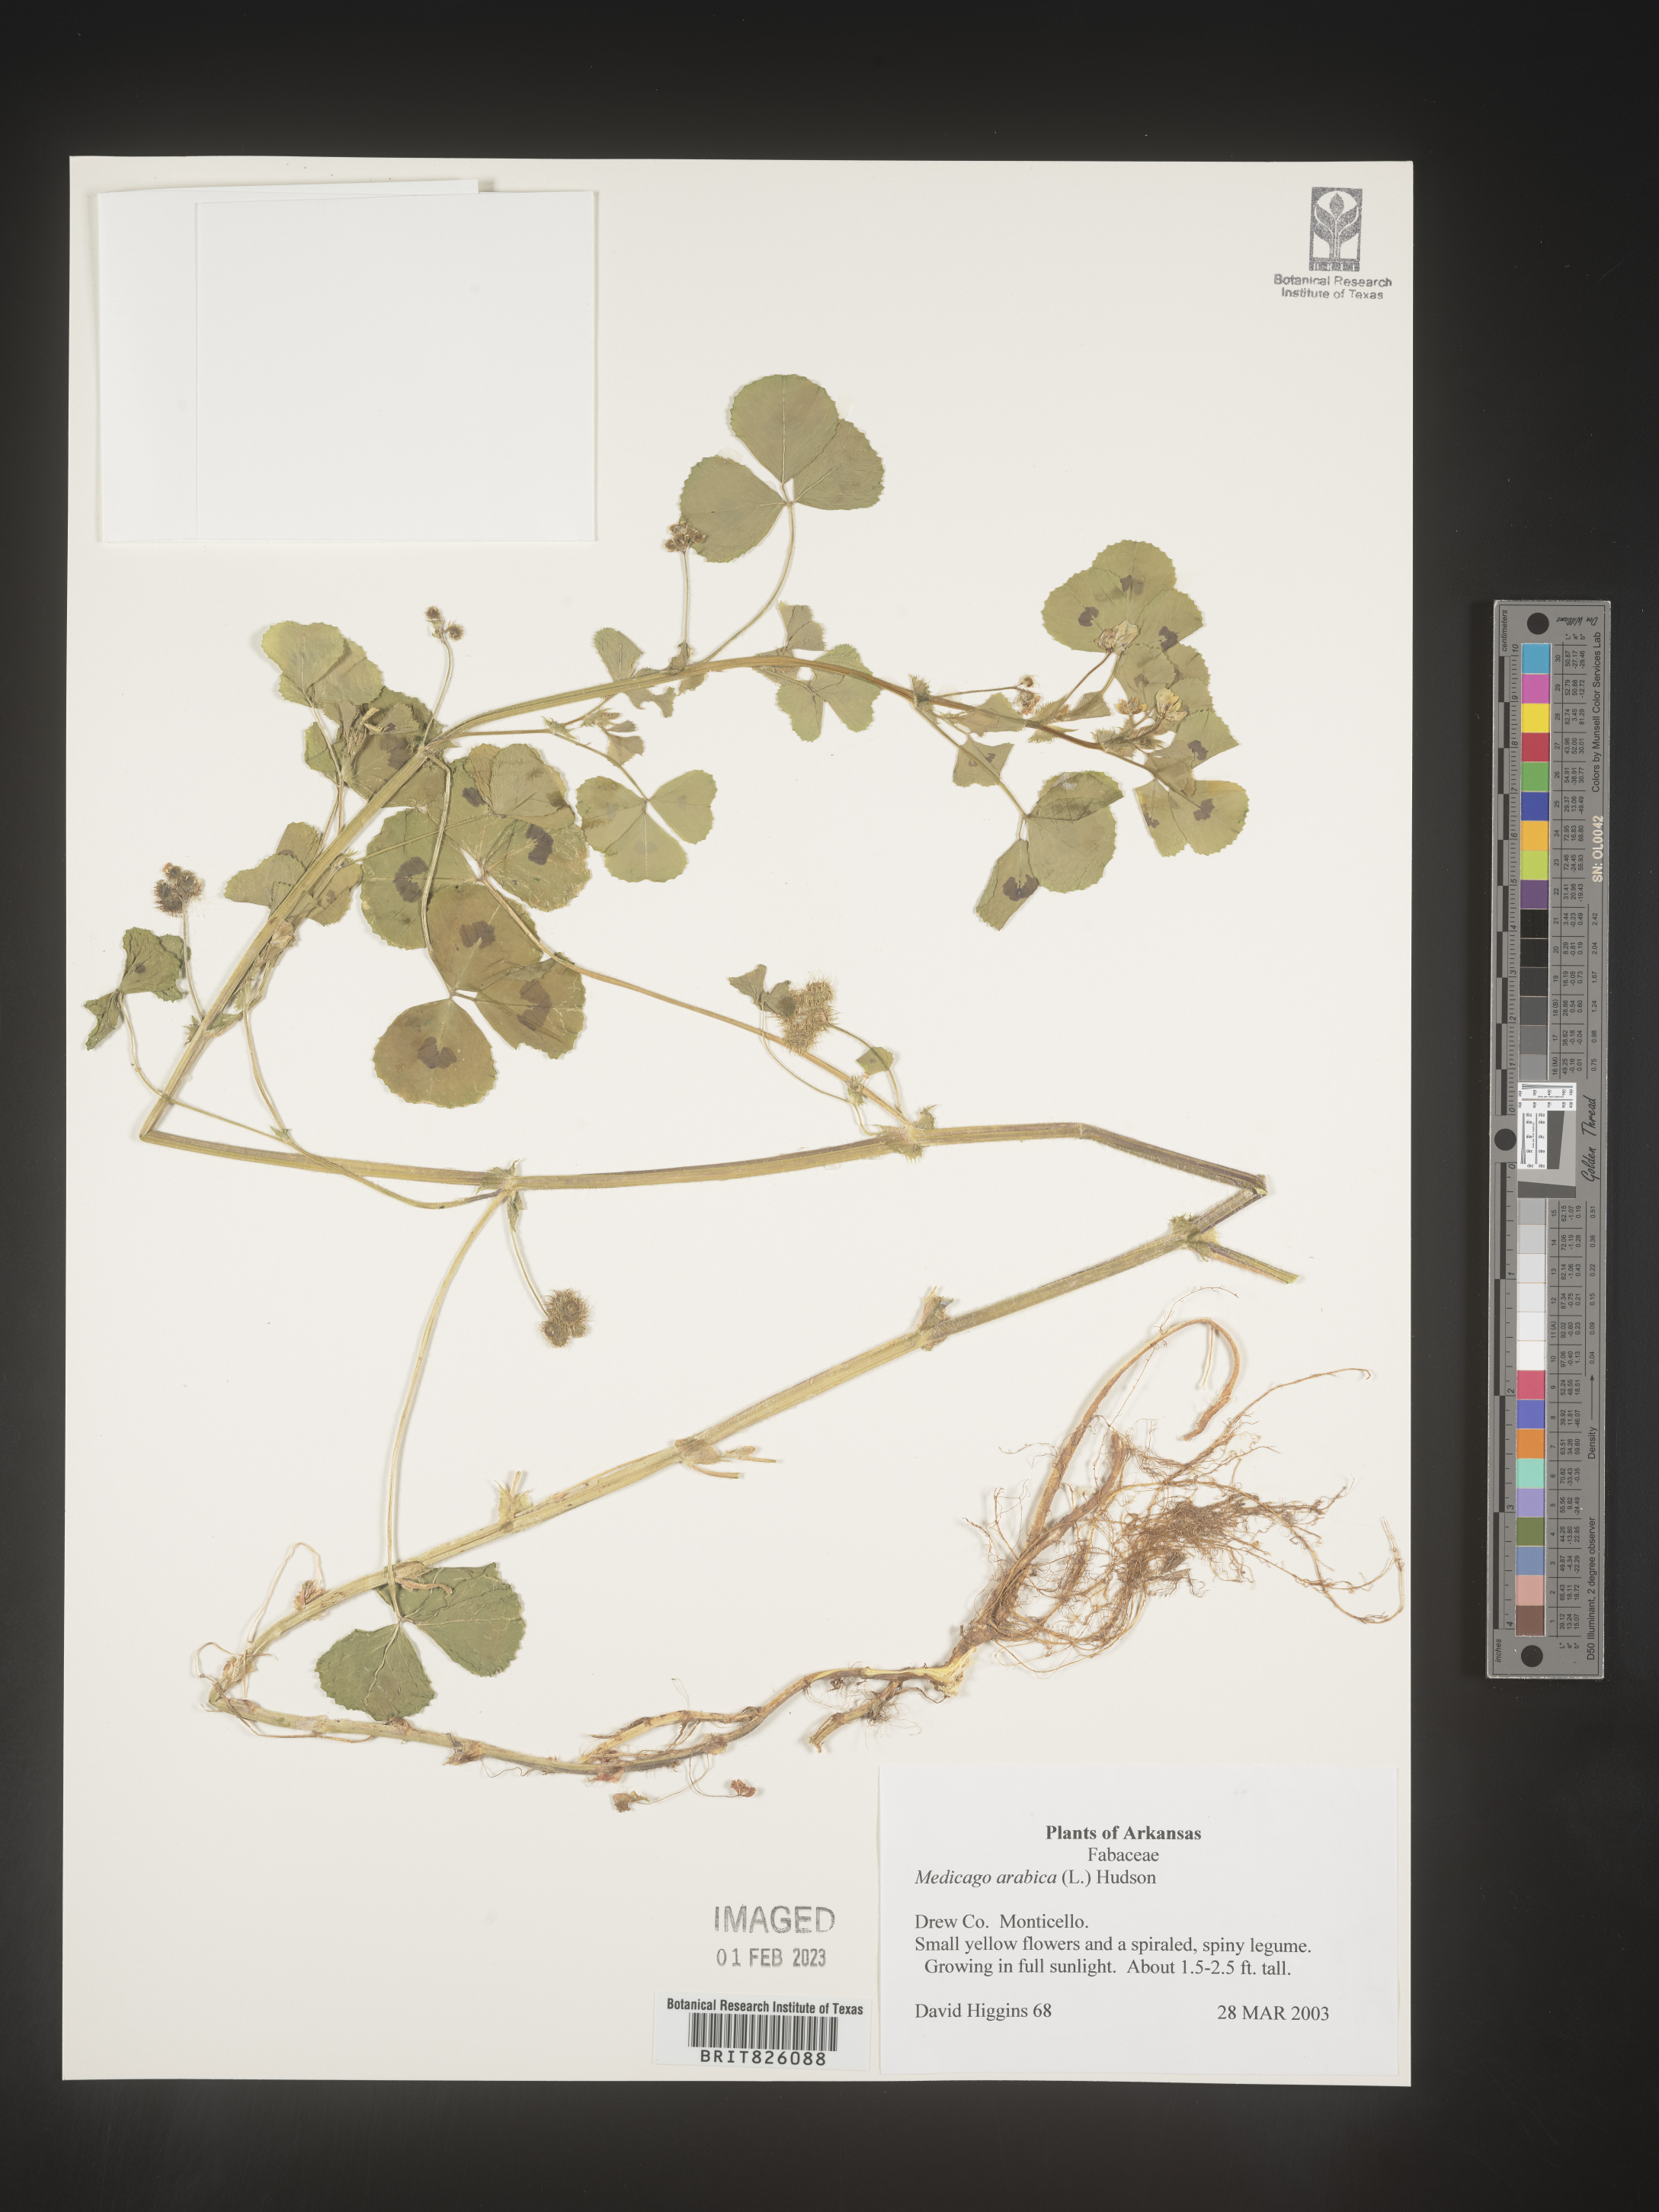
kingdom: Plantae
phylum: Tracheophyta
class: Magnoliopsida
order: Fabales
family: Fabaceae
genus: Medicago
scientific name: Medicago arabica
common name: Spotted medick
